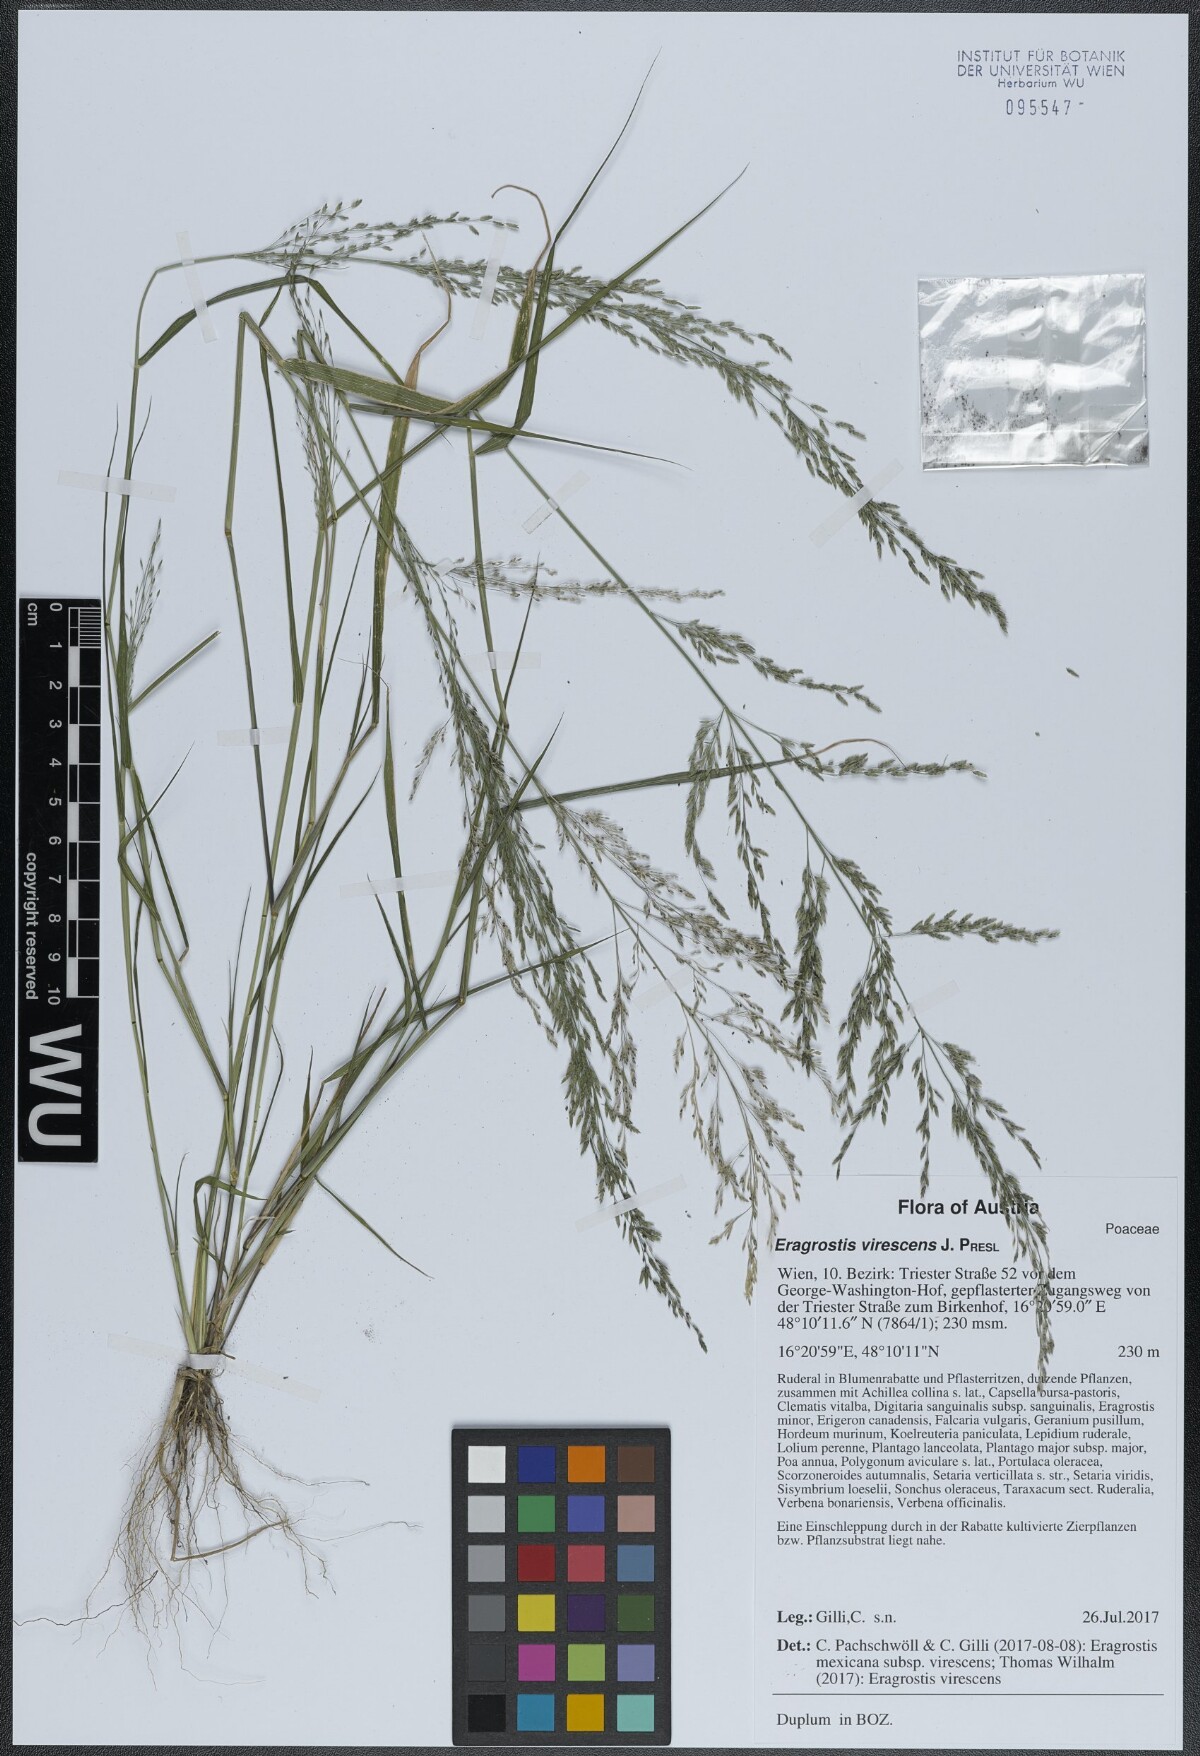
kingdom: Plantae
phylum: Tracheophyta
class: Liliopsida
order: Poales
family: Poaceae
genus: Eragrostis
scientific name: Eragrostis virescens
